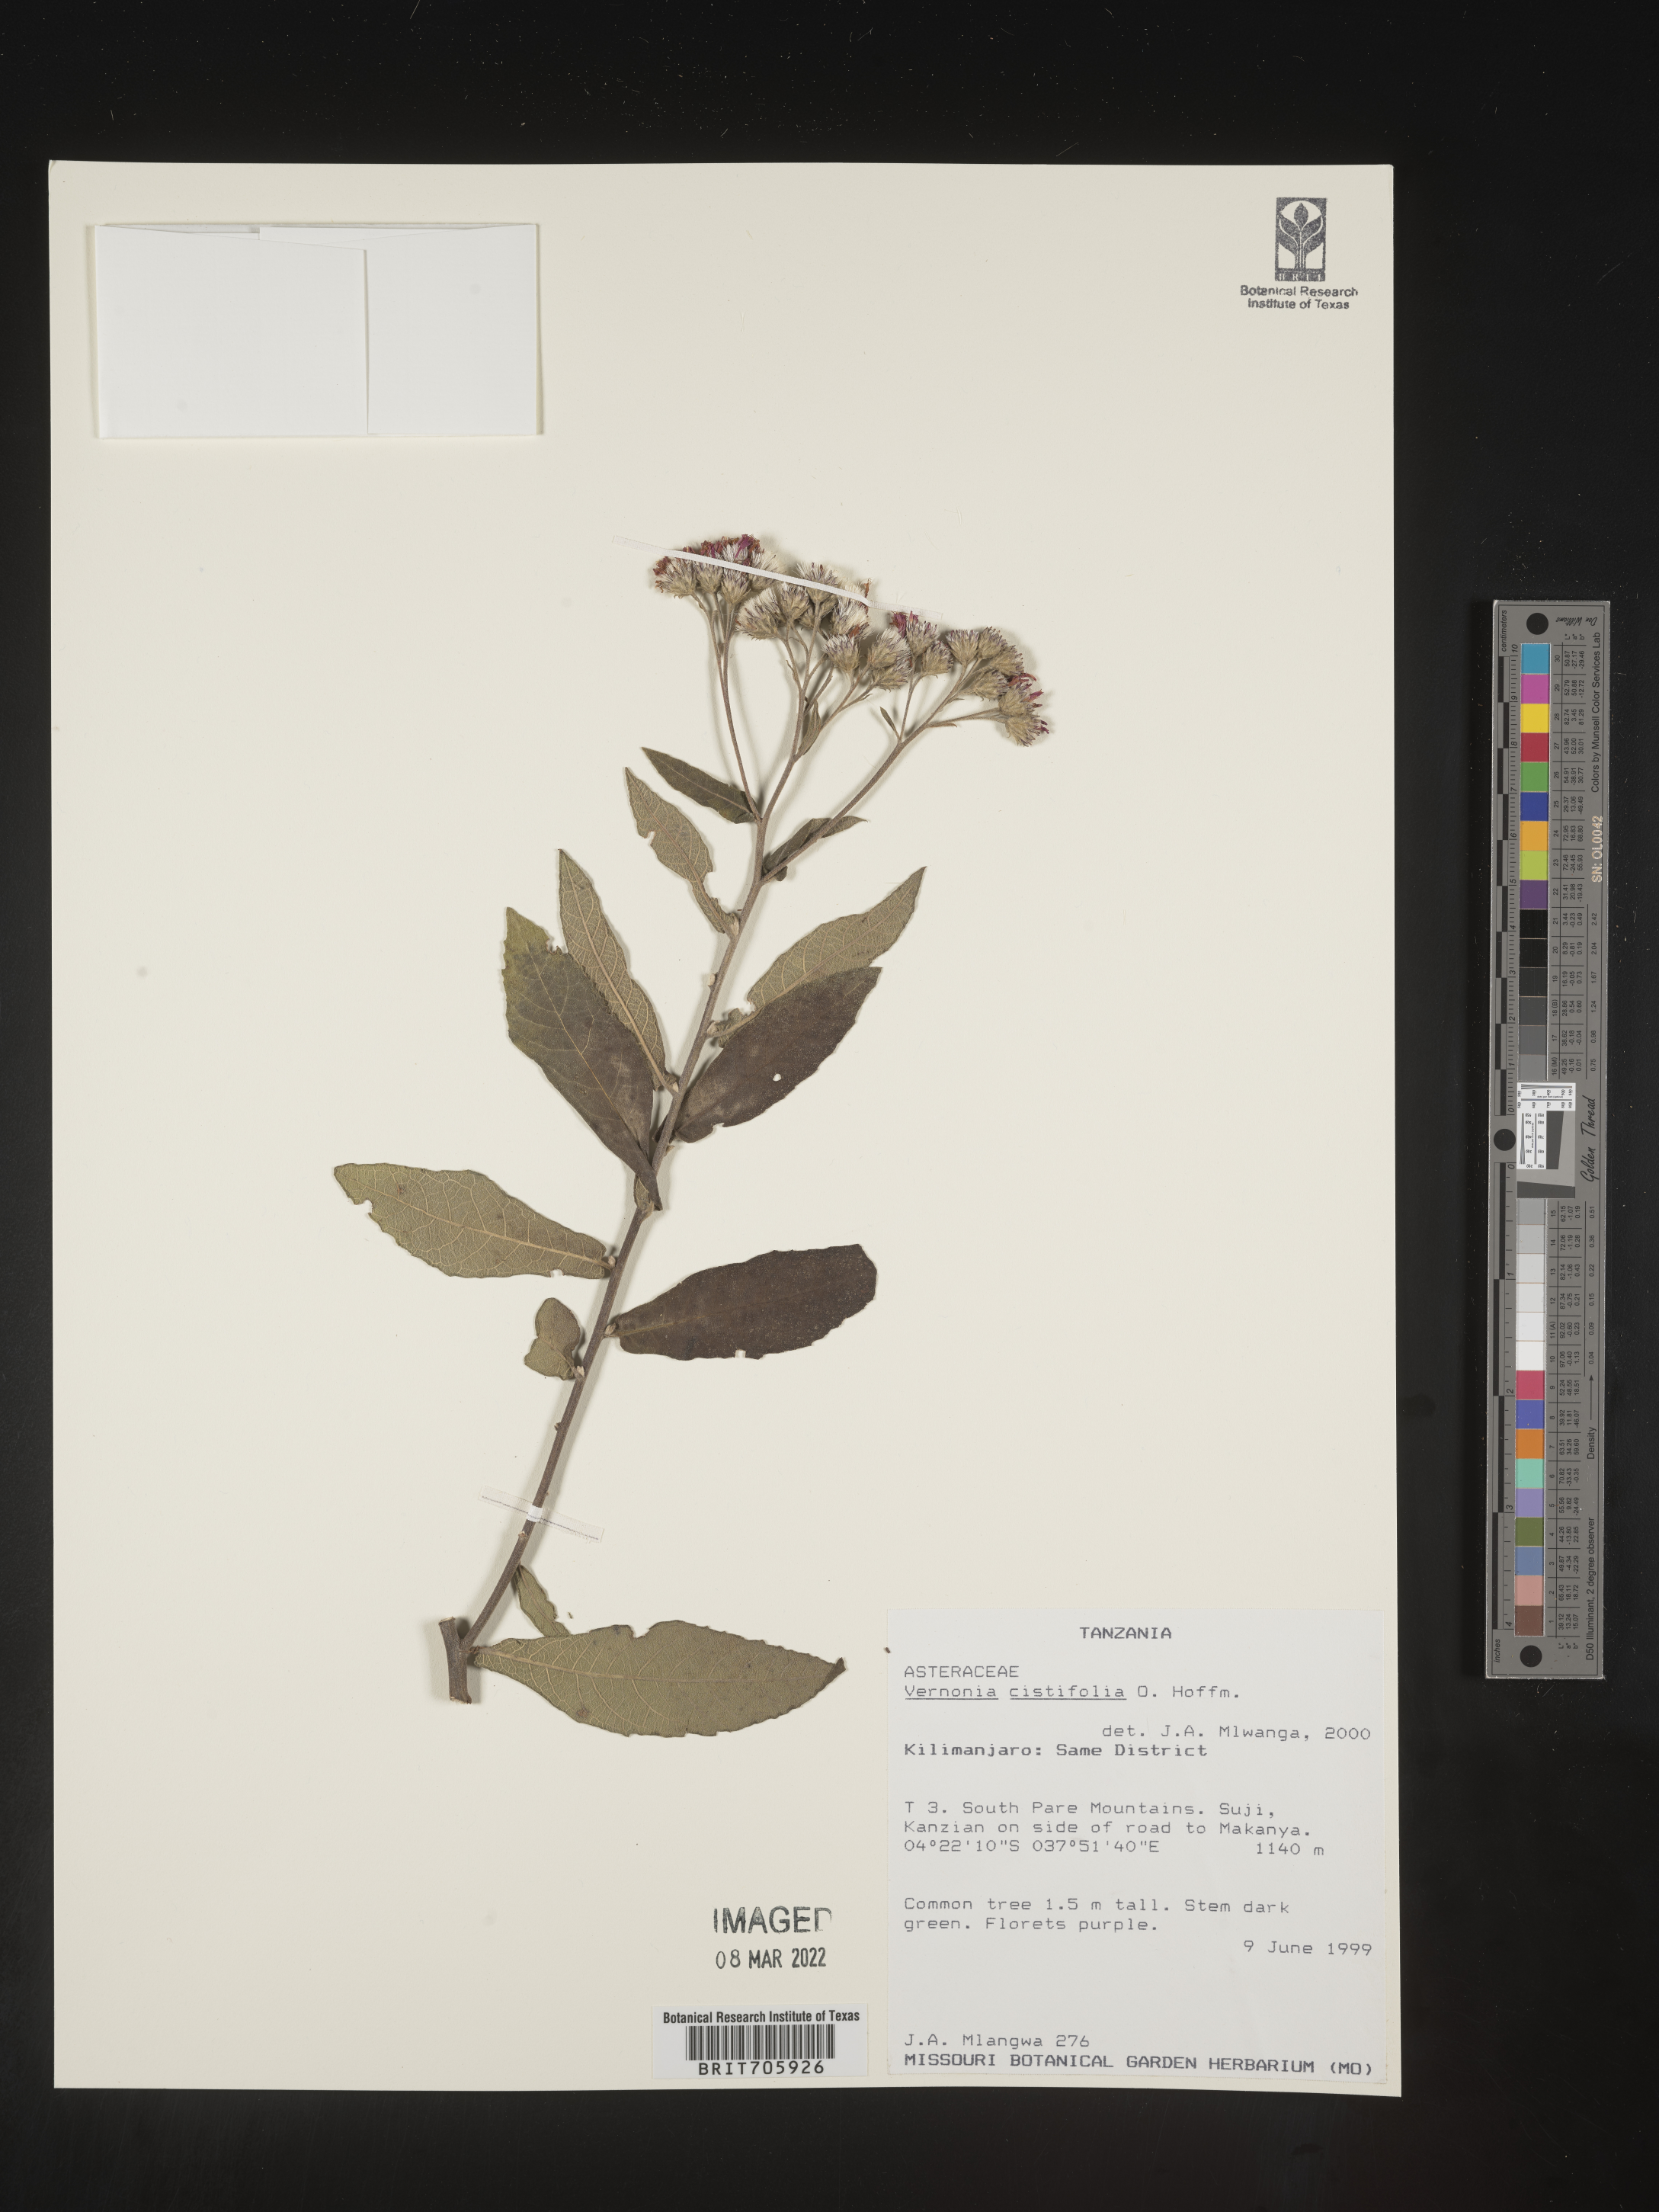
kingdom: Plantae
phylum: Tracheophyta
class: Magnoliopsida
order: Asterales
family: Asteraceae
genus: Vernonia
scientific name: Vernonia
